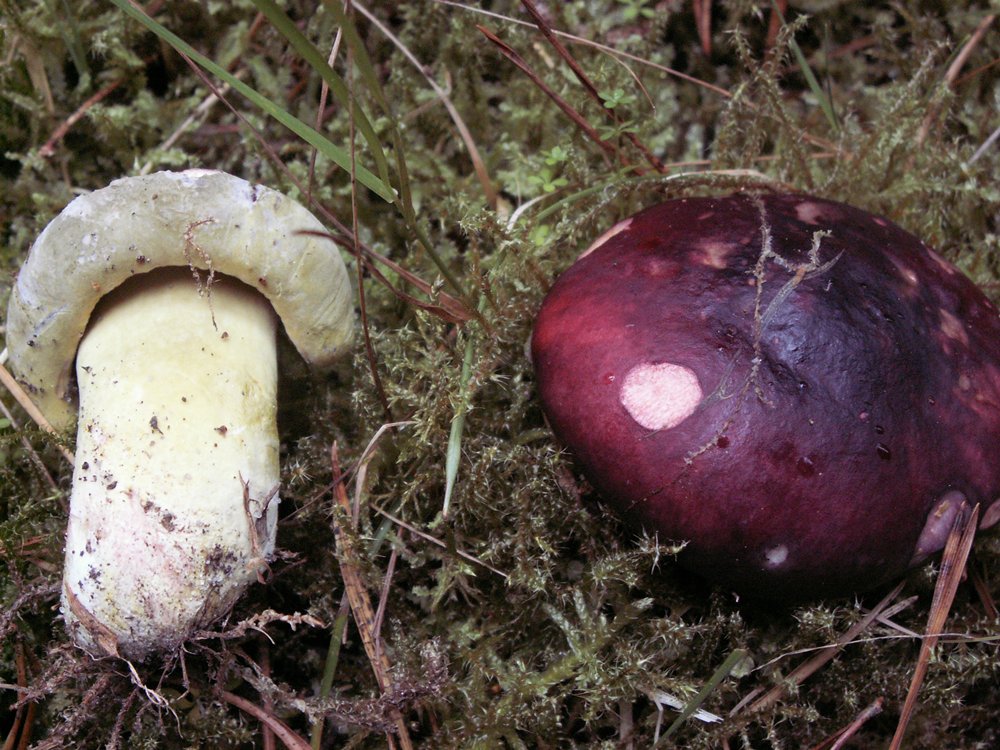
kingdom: Fungi
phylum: Basidiomycota
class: Agaricomycetes
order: Russulales
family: Russulaceae
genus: Russula
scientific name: Russula xerampelina
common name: hummer-skørhat
